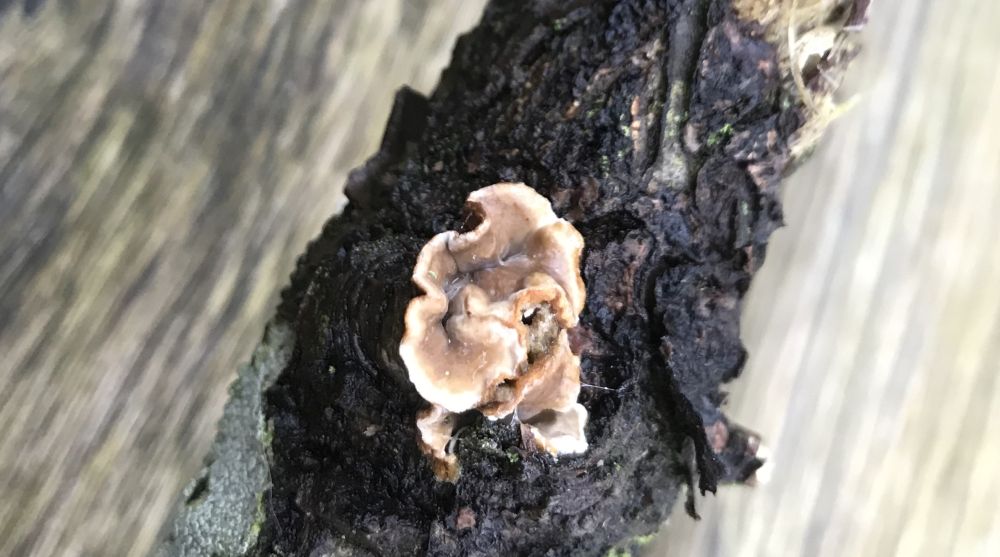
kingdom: Fungi
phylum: Basidiomycota
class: Agaricomycetes
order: Russulales
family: Stereaceae
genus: Stereum
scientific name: Stereum
